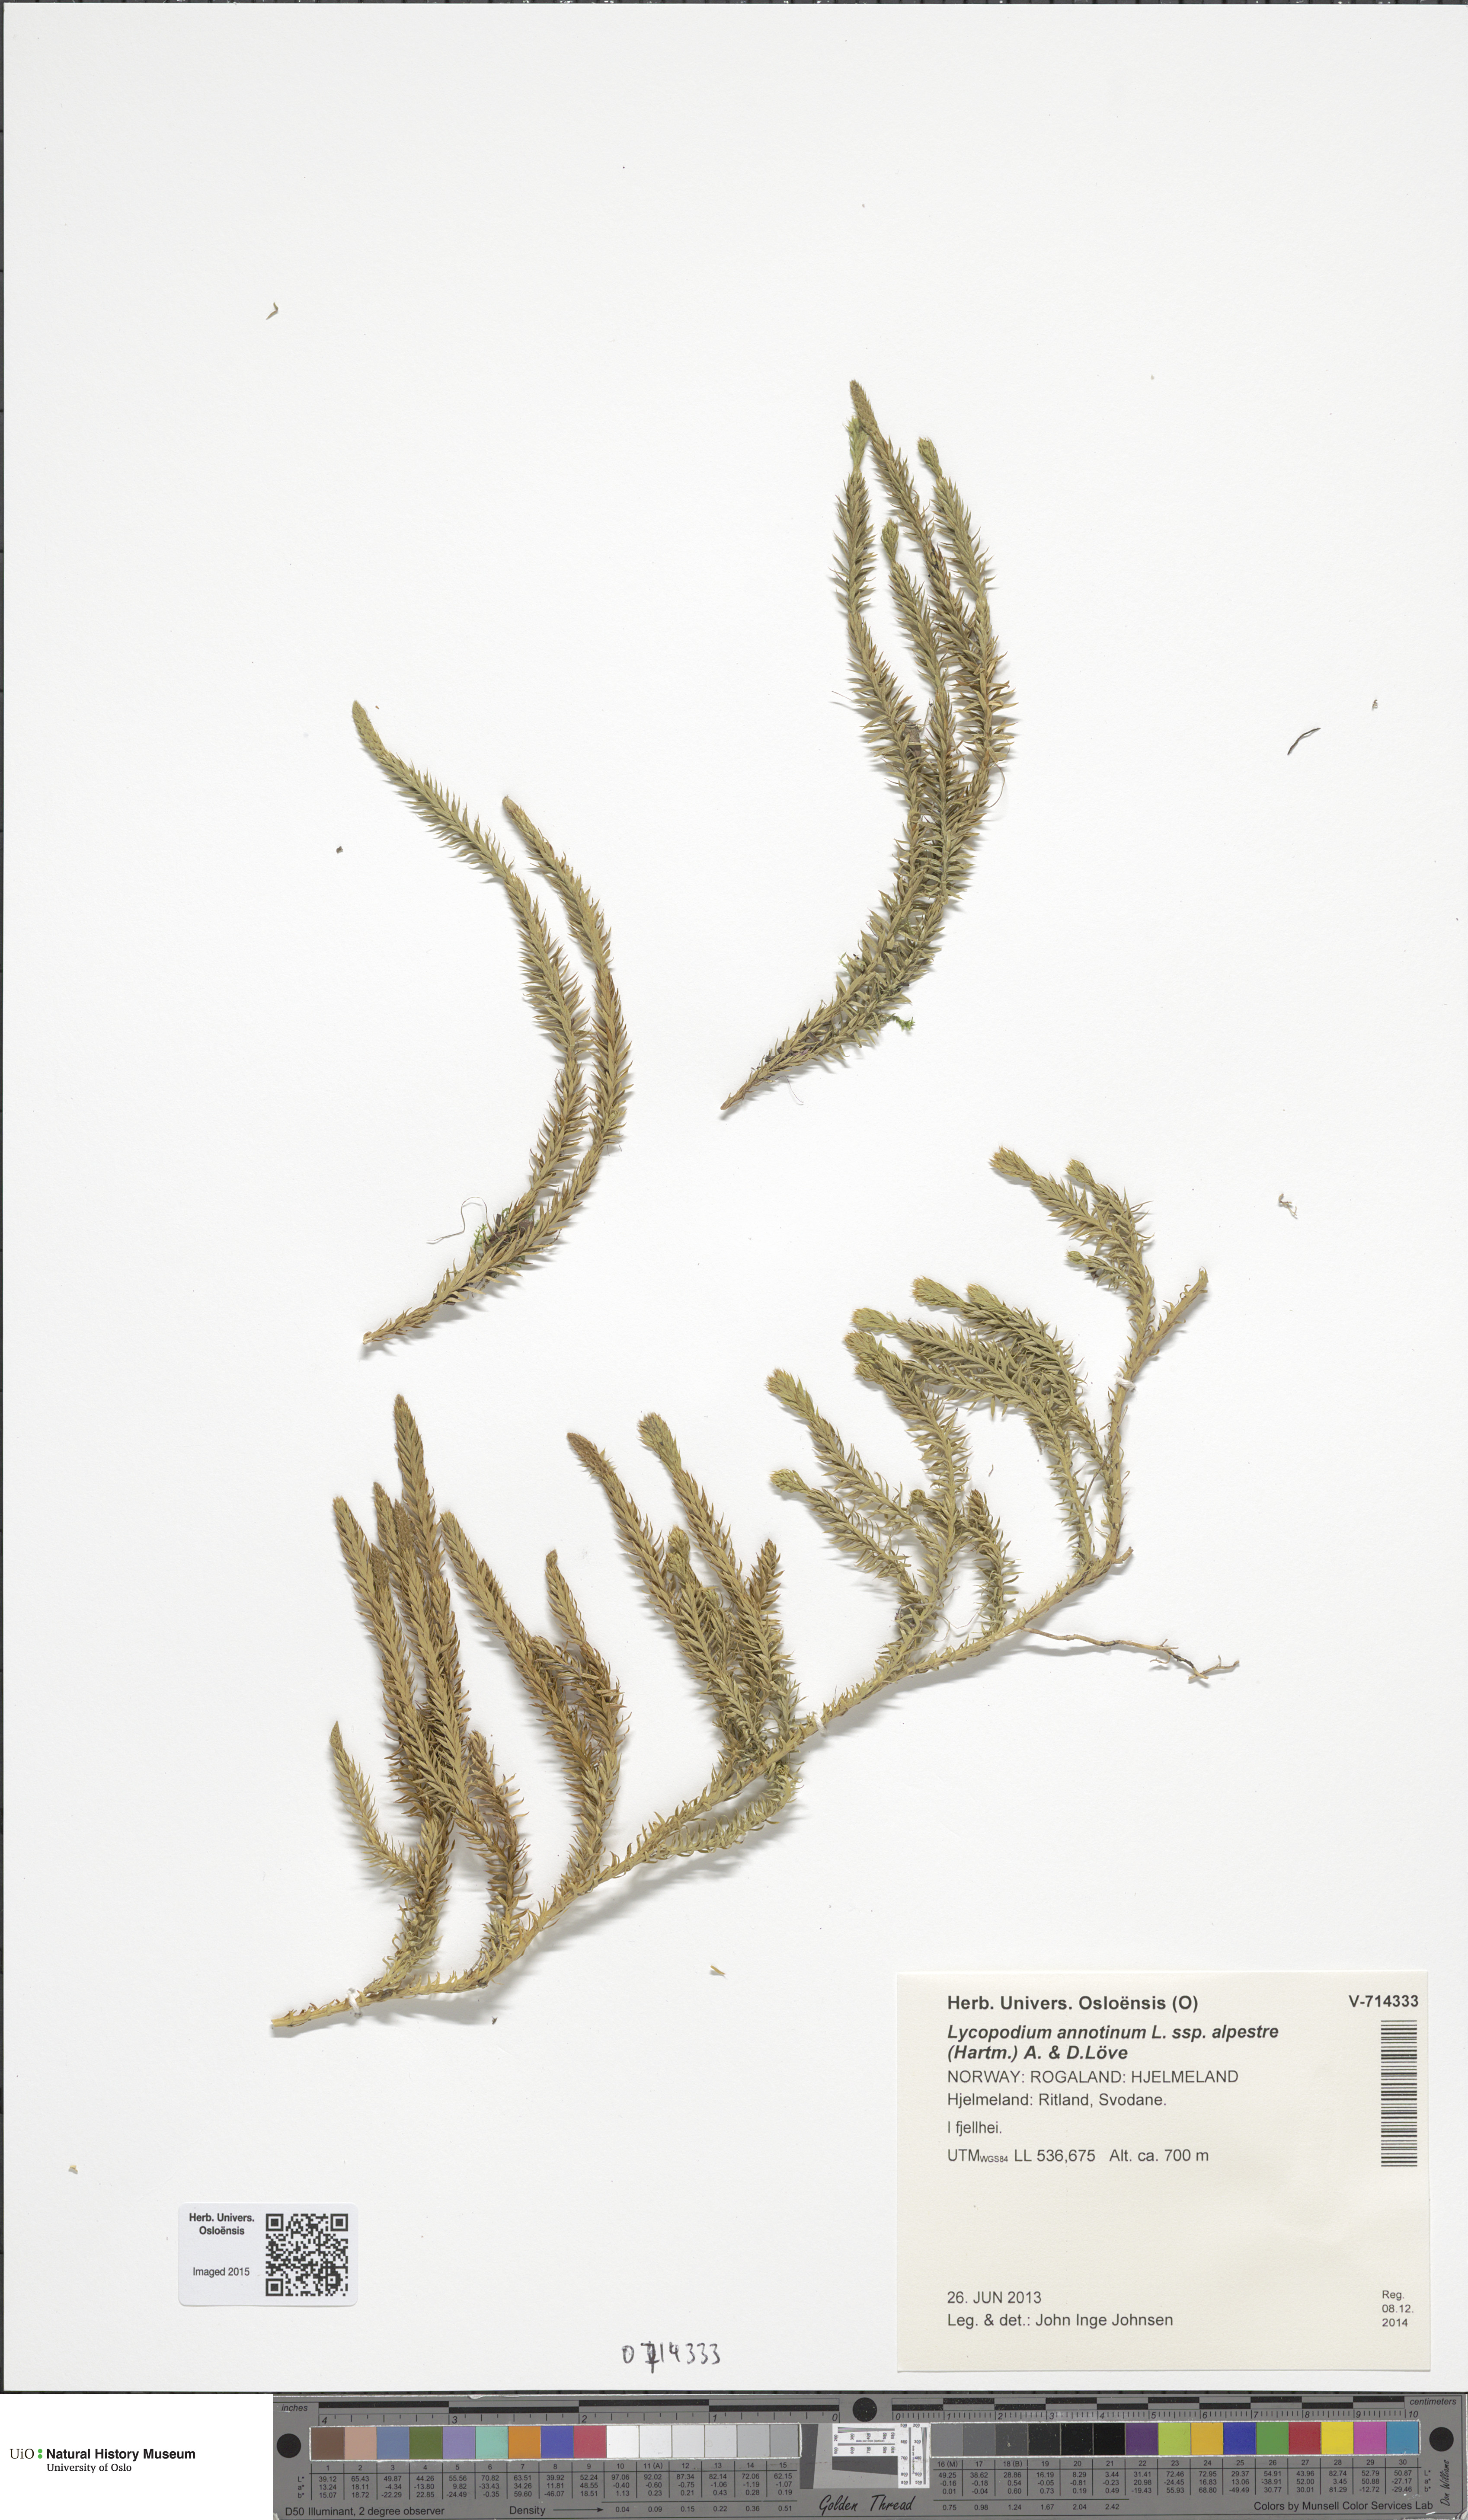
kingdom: Plantae
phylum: Tracheophyta
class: Lycopodiopsida
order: Lycopodiales
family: Lycopodiaceae
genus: Spinulum
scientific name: Spinulum annotinum
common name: Interrupted club-moss
